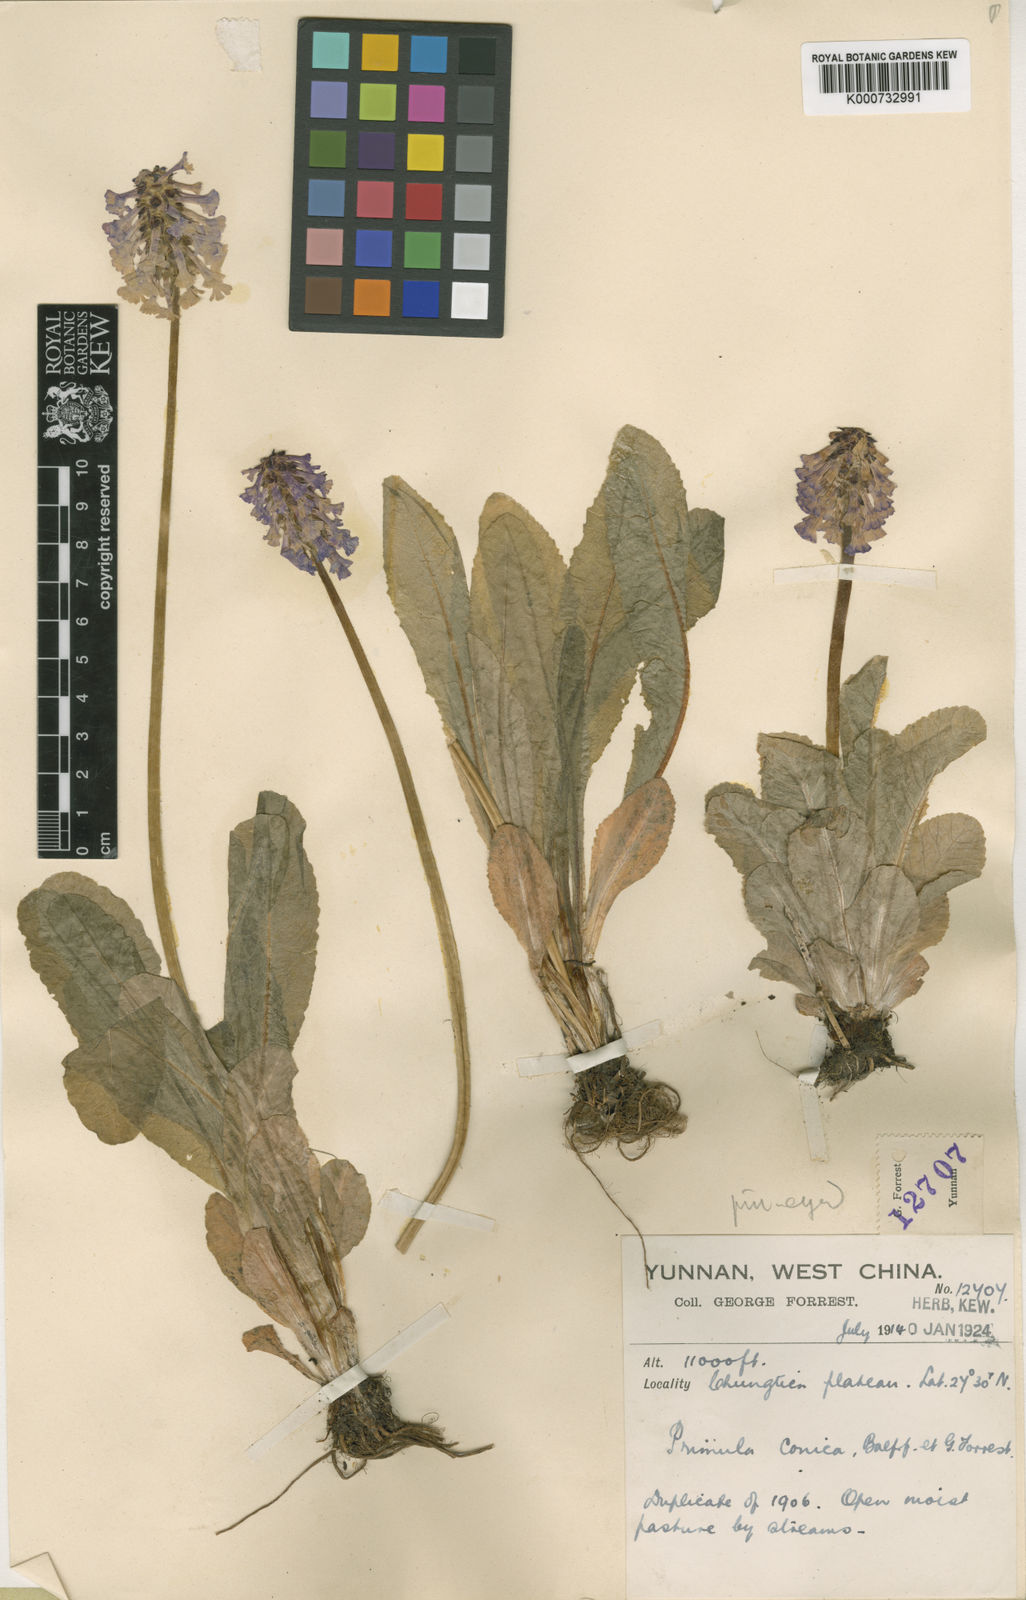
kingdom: Plantae
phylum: Tracheophyta
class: Magnoliopsida
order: Ericales
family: Primulaceae
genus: Primula
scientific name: Primula deflexa
